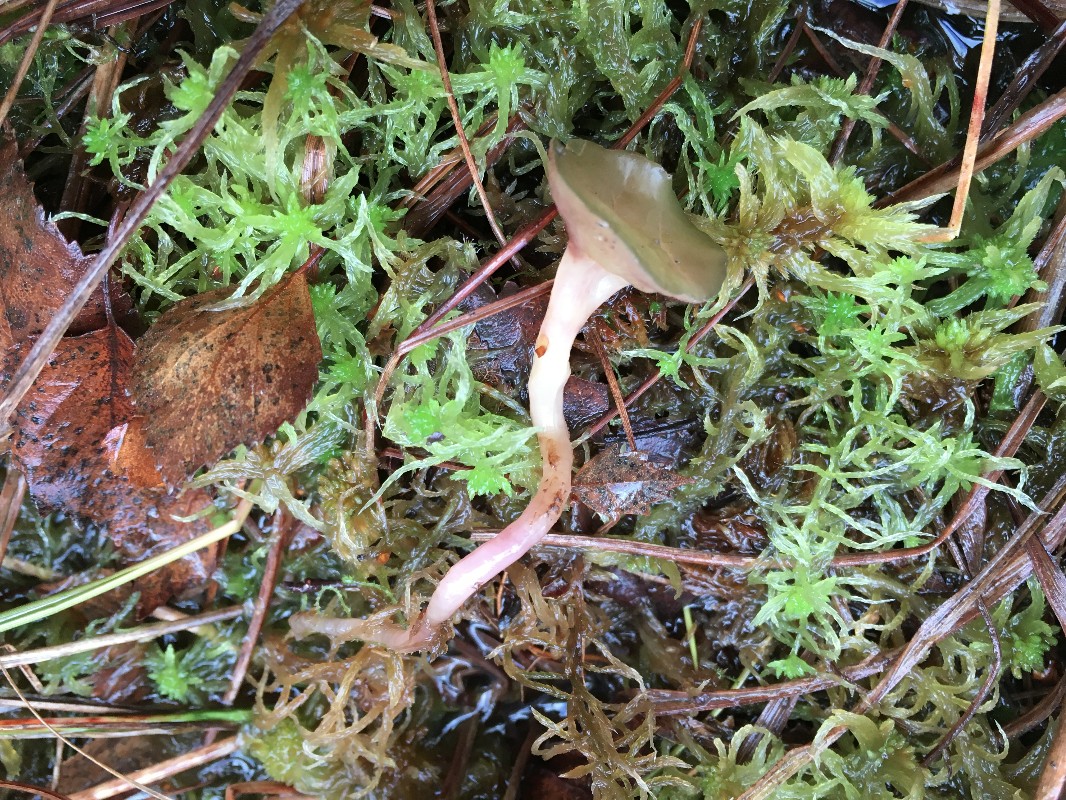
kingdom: Fungi
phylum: Ascomycota
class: Leotiomycetes
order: Helotiales
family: Gelatinodiscaceae
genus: Ascocoryne
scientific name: Ascocoryne turficola
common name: tørve-sejskive
